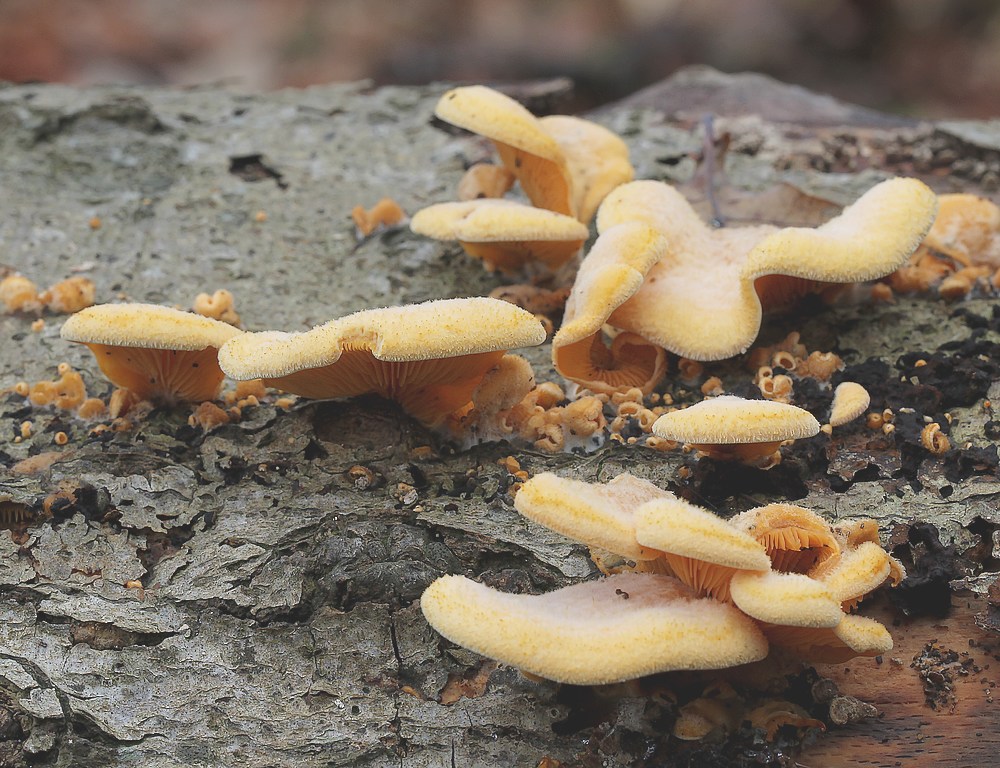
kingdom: Fungi
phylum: Basidiomycota
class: Agaricomycetes
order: Agaricales
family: Phyllotopsidaceae
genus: Phyllotopsis
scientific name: Phyllotopsis nidulans
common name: okkerblad
